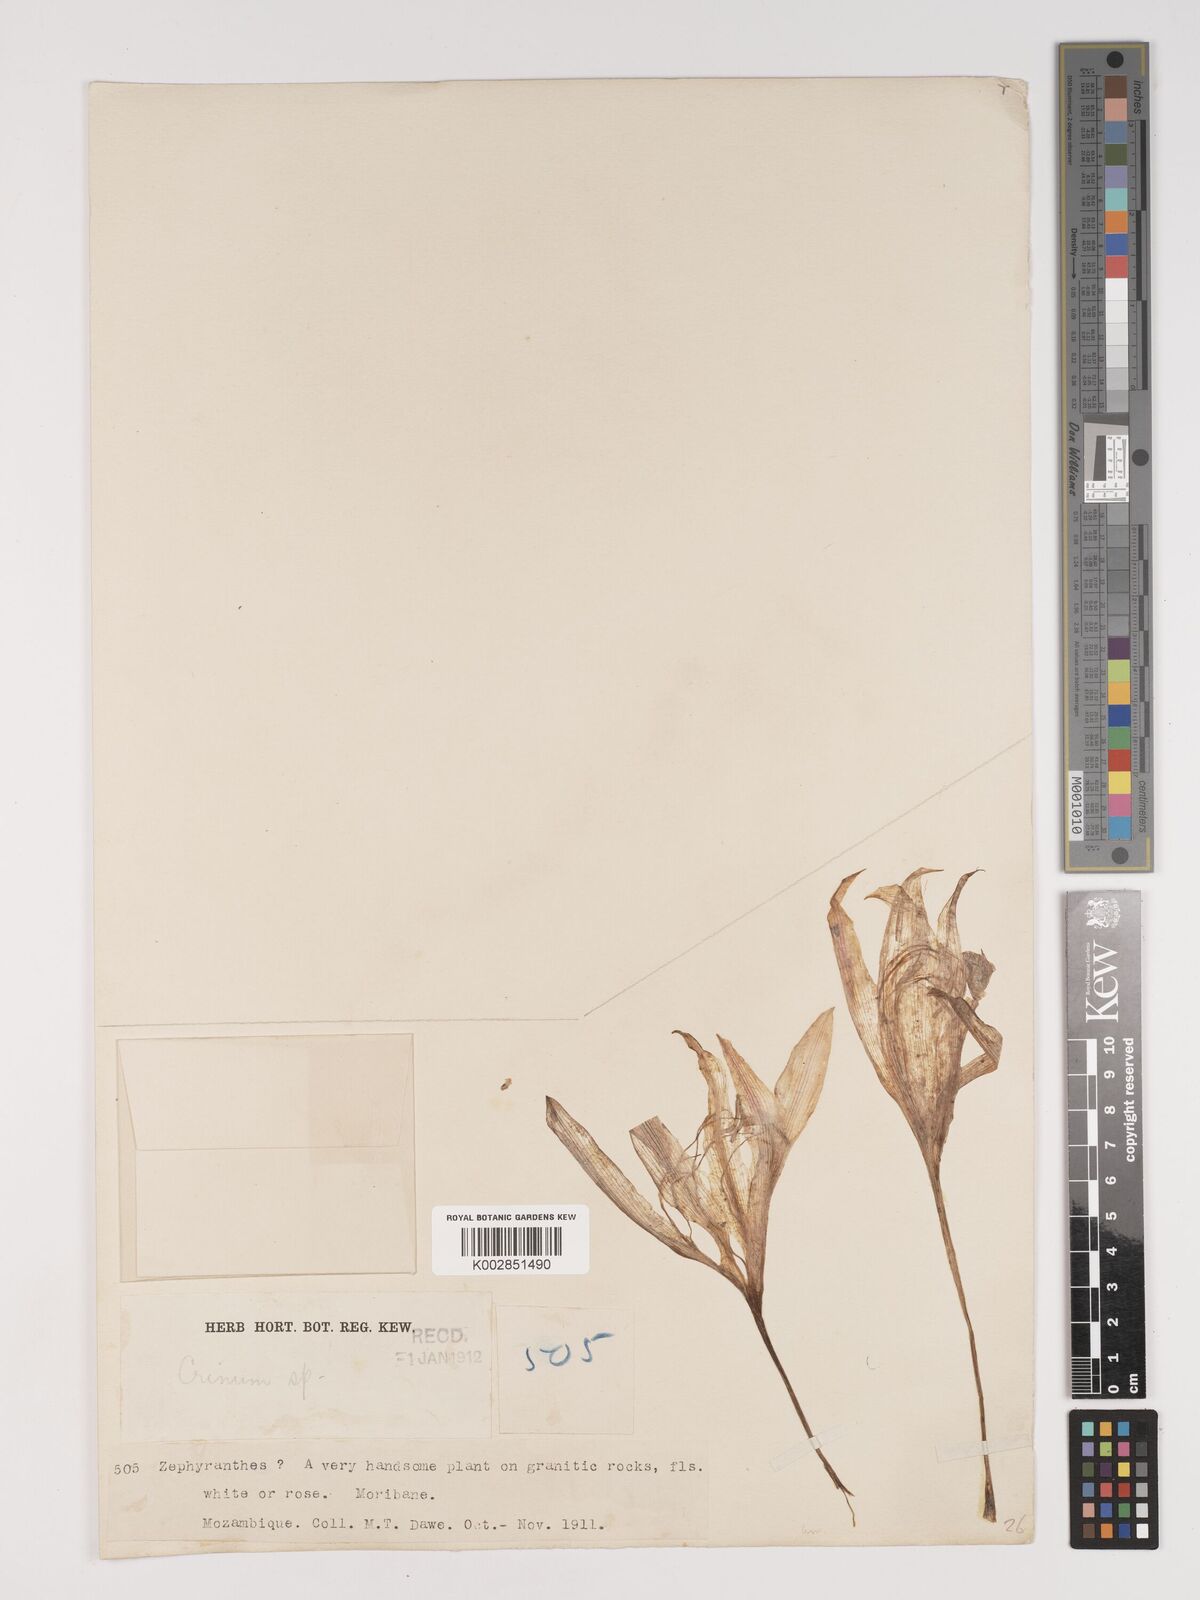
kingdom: Plantae
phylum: Tracheophyta
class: Liliopsida
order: Asparagales
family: Amaryllidaceae
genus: Crinum
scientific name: Crinum stuhlmannii
